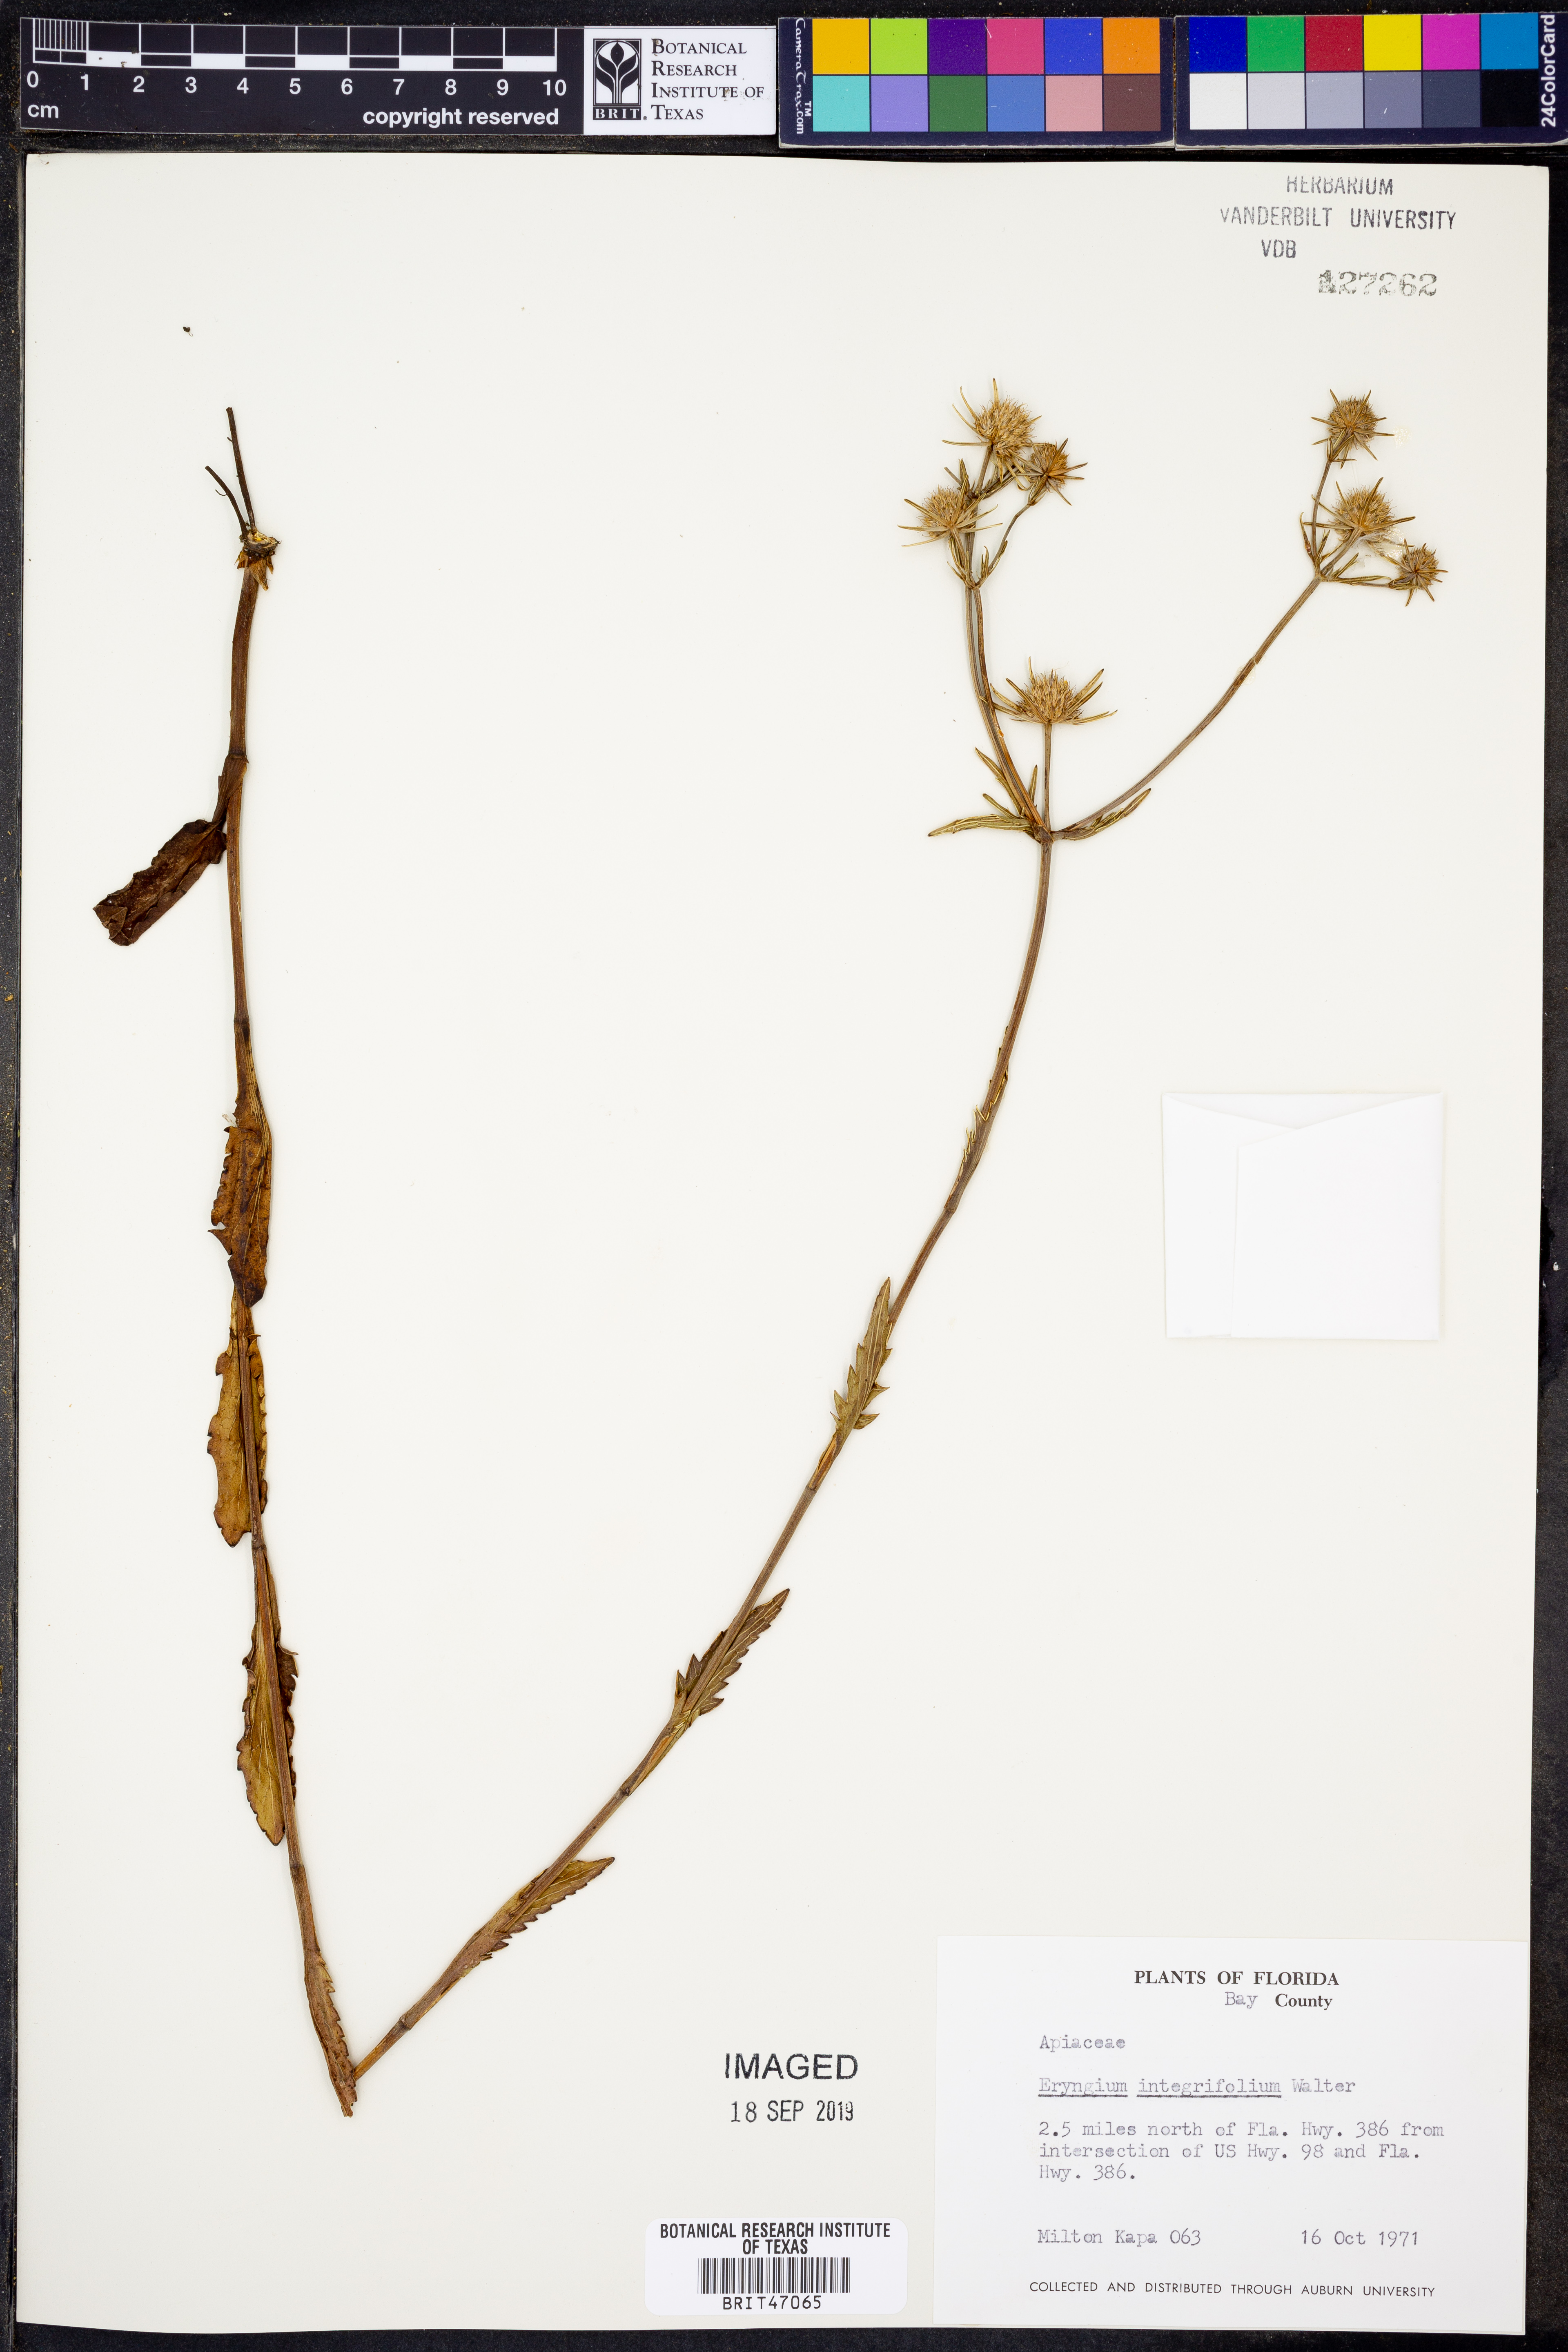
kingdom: Plantae
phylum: Tracheophyta
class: Magnoliopsida
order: Apiales
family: Apiaceae
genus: Eryngium
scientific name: Eryngium integrifolium
